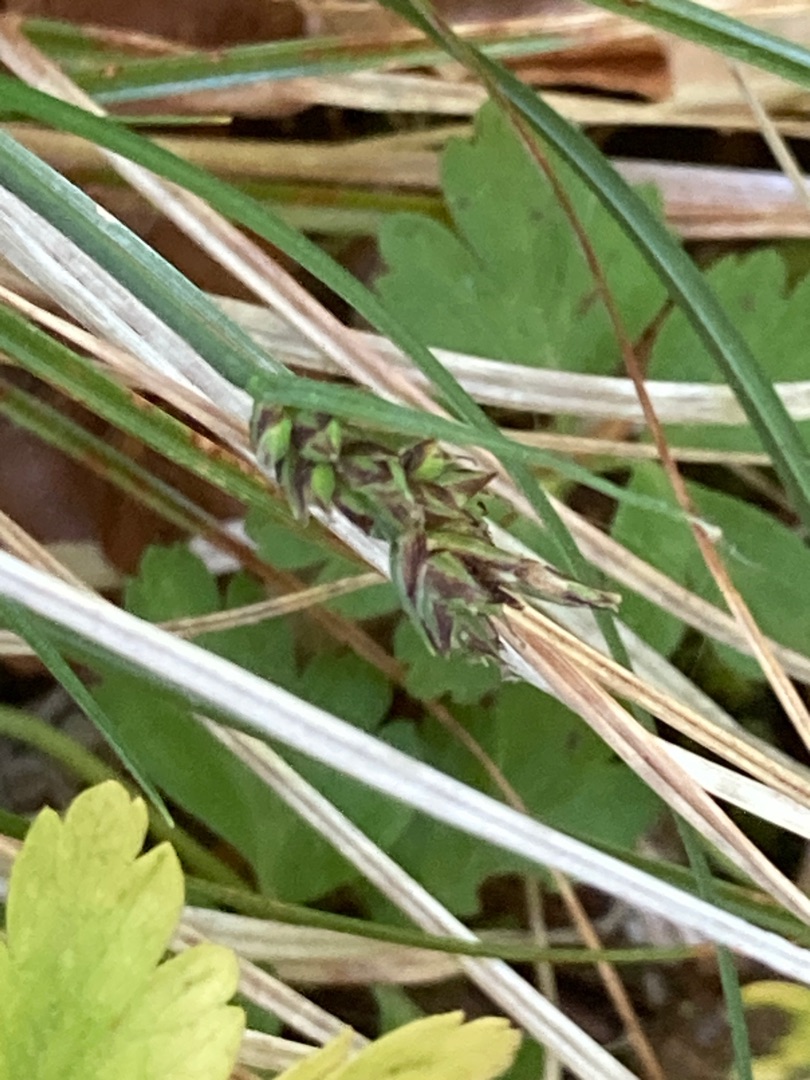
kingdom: Plantae
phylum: Tracheophyta
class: Liliopsida
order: Poales
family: Cyperaceae
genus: Carex
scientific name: Carex pilulifera
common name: Pille-star
